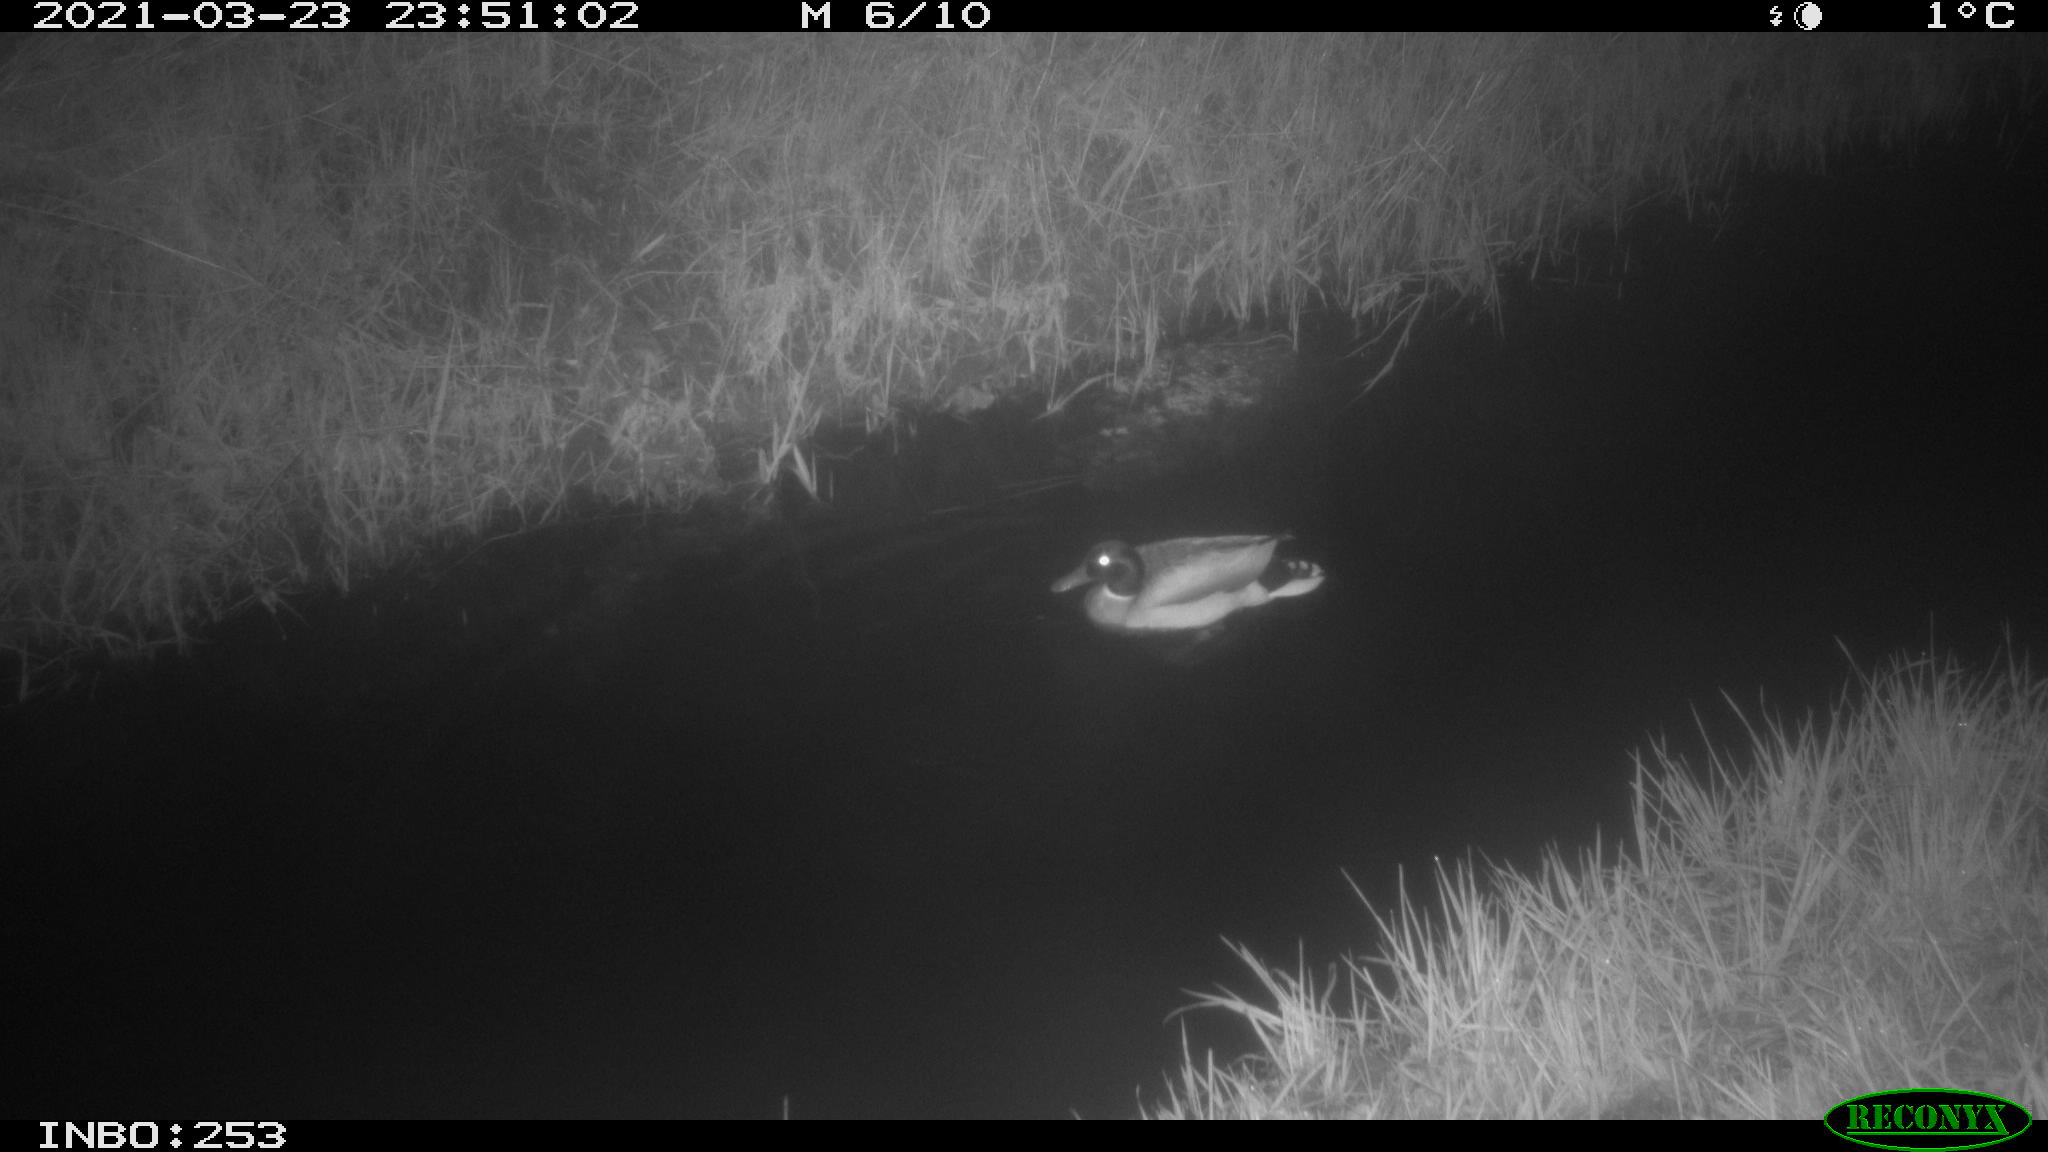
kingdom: Animalia
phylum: Chordata
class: Aves
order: Anseriformes
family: Anatidae
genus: Anas
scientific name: Anas platyrhynchos
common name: Mallard
